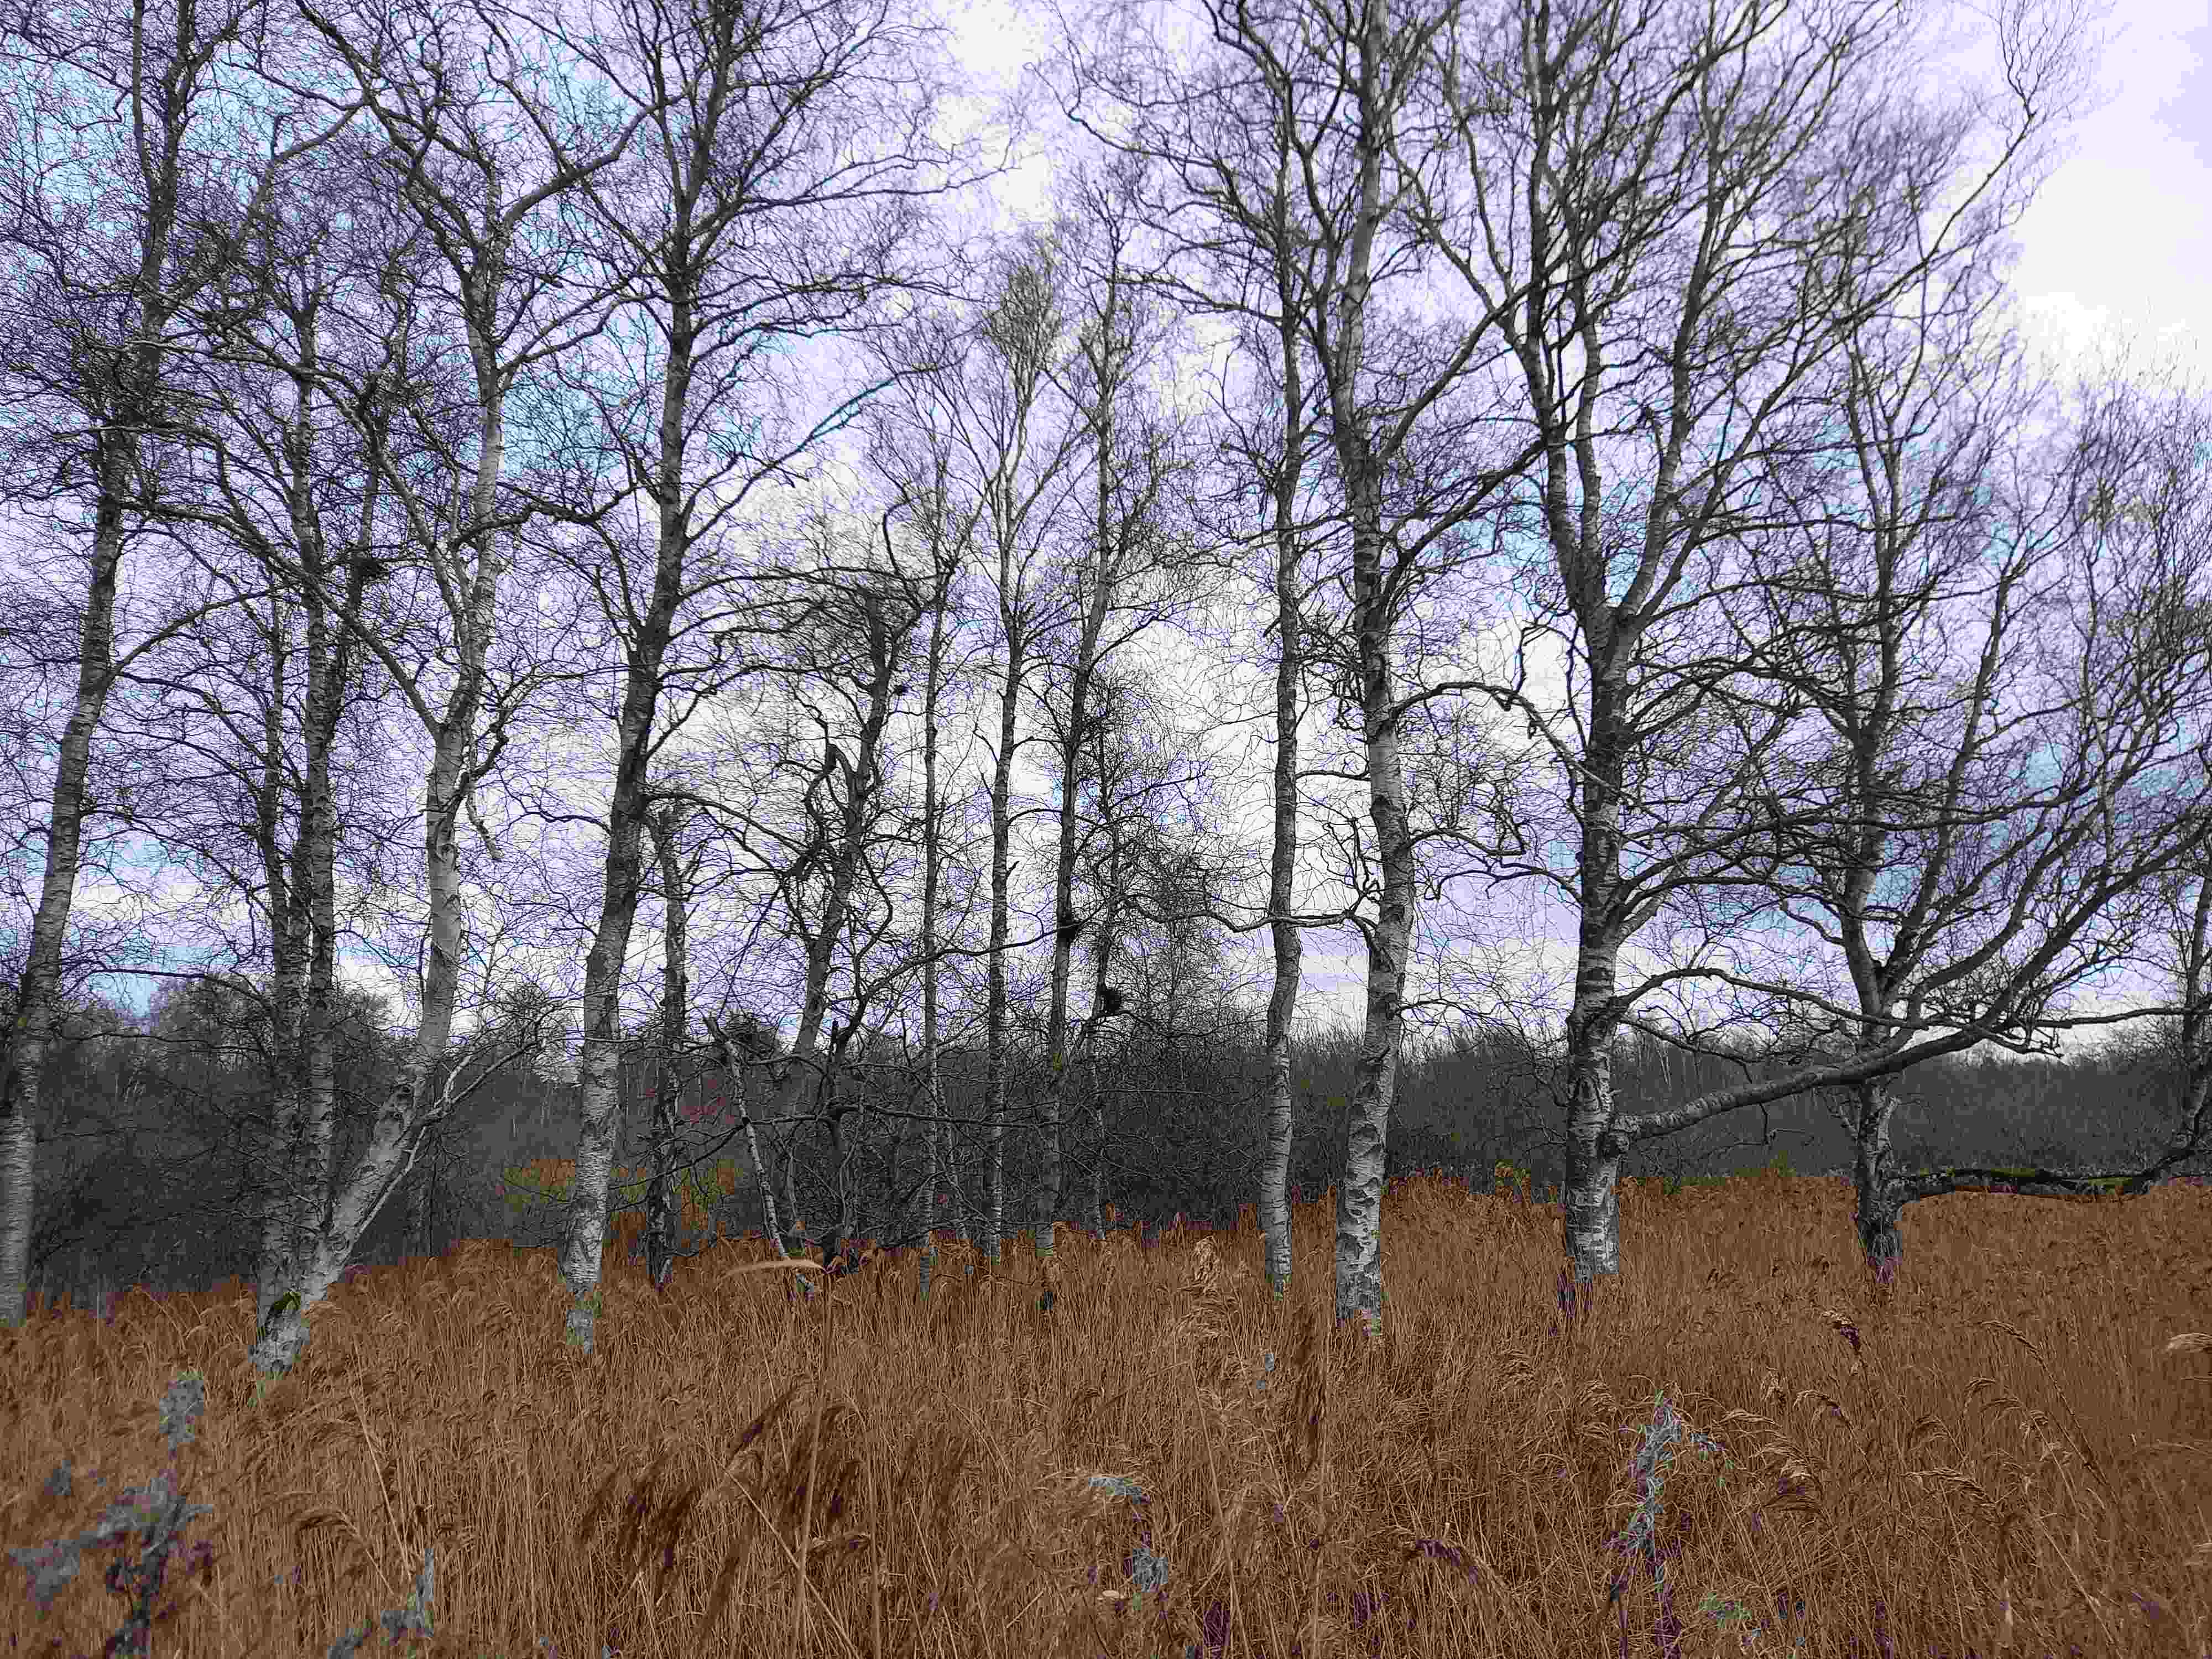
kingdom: Fungi
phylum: Ascomycota
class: Taphrinomycetes
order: Taphrinales
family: Taphrinaceae
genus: Taphrina
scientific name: Taphrina betulina
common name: hekse-sækdug
